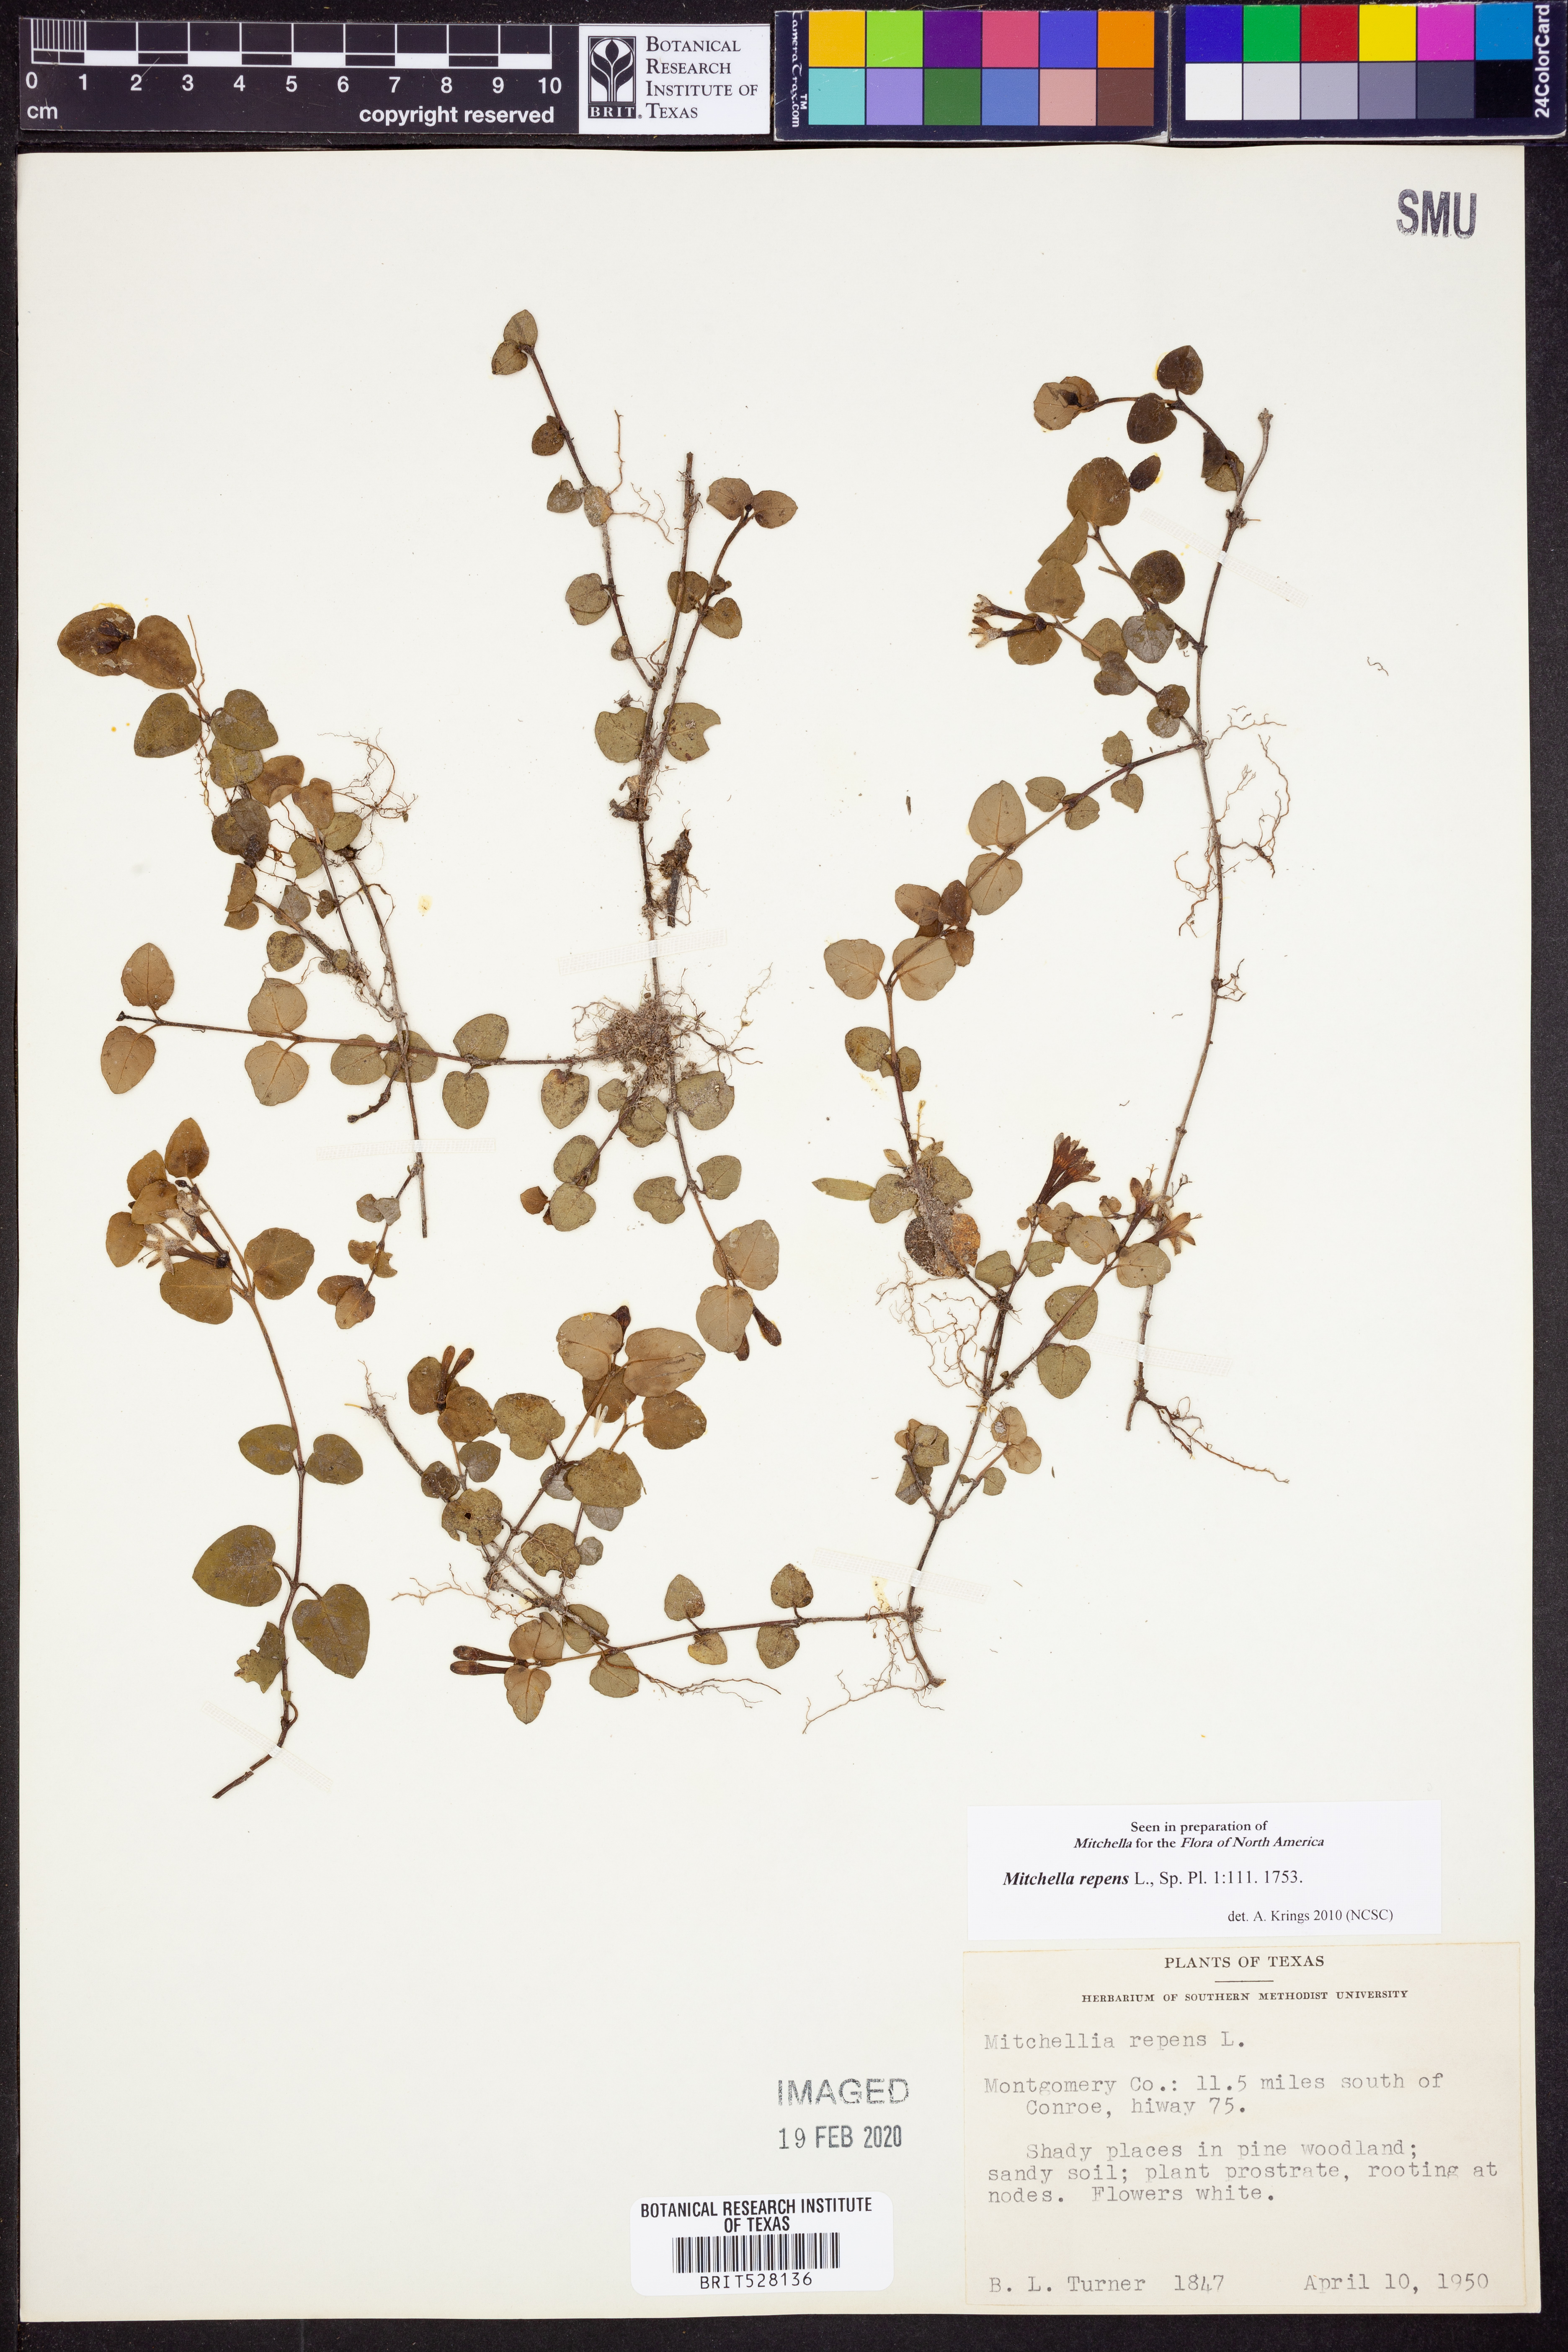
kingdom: Plantae
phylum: Tracheophyta
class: Magnoliopsida
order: Gentianales
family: Rubiaceae
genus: Mitchella
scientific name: Mitchella repens
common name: Partridge-berry
